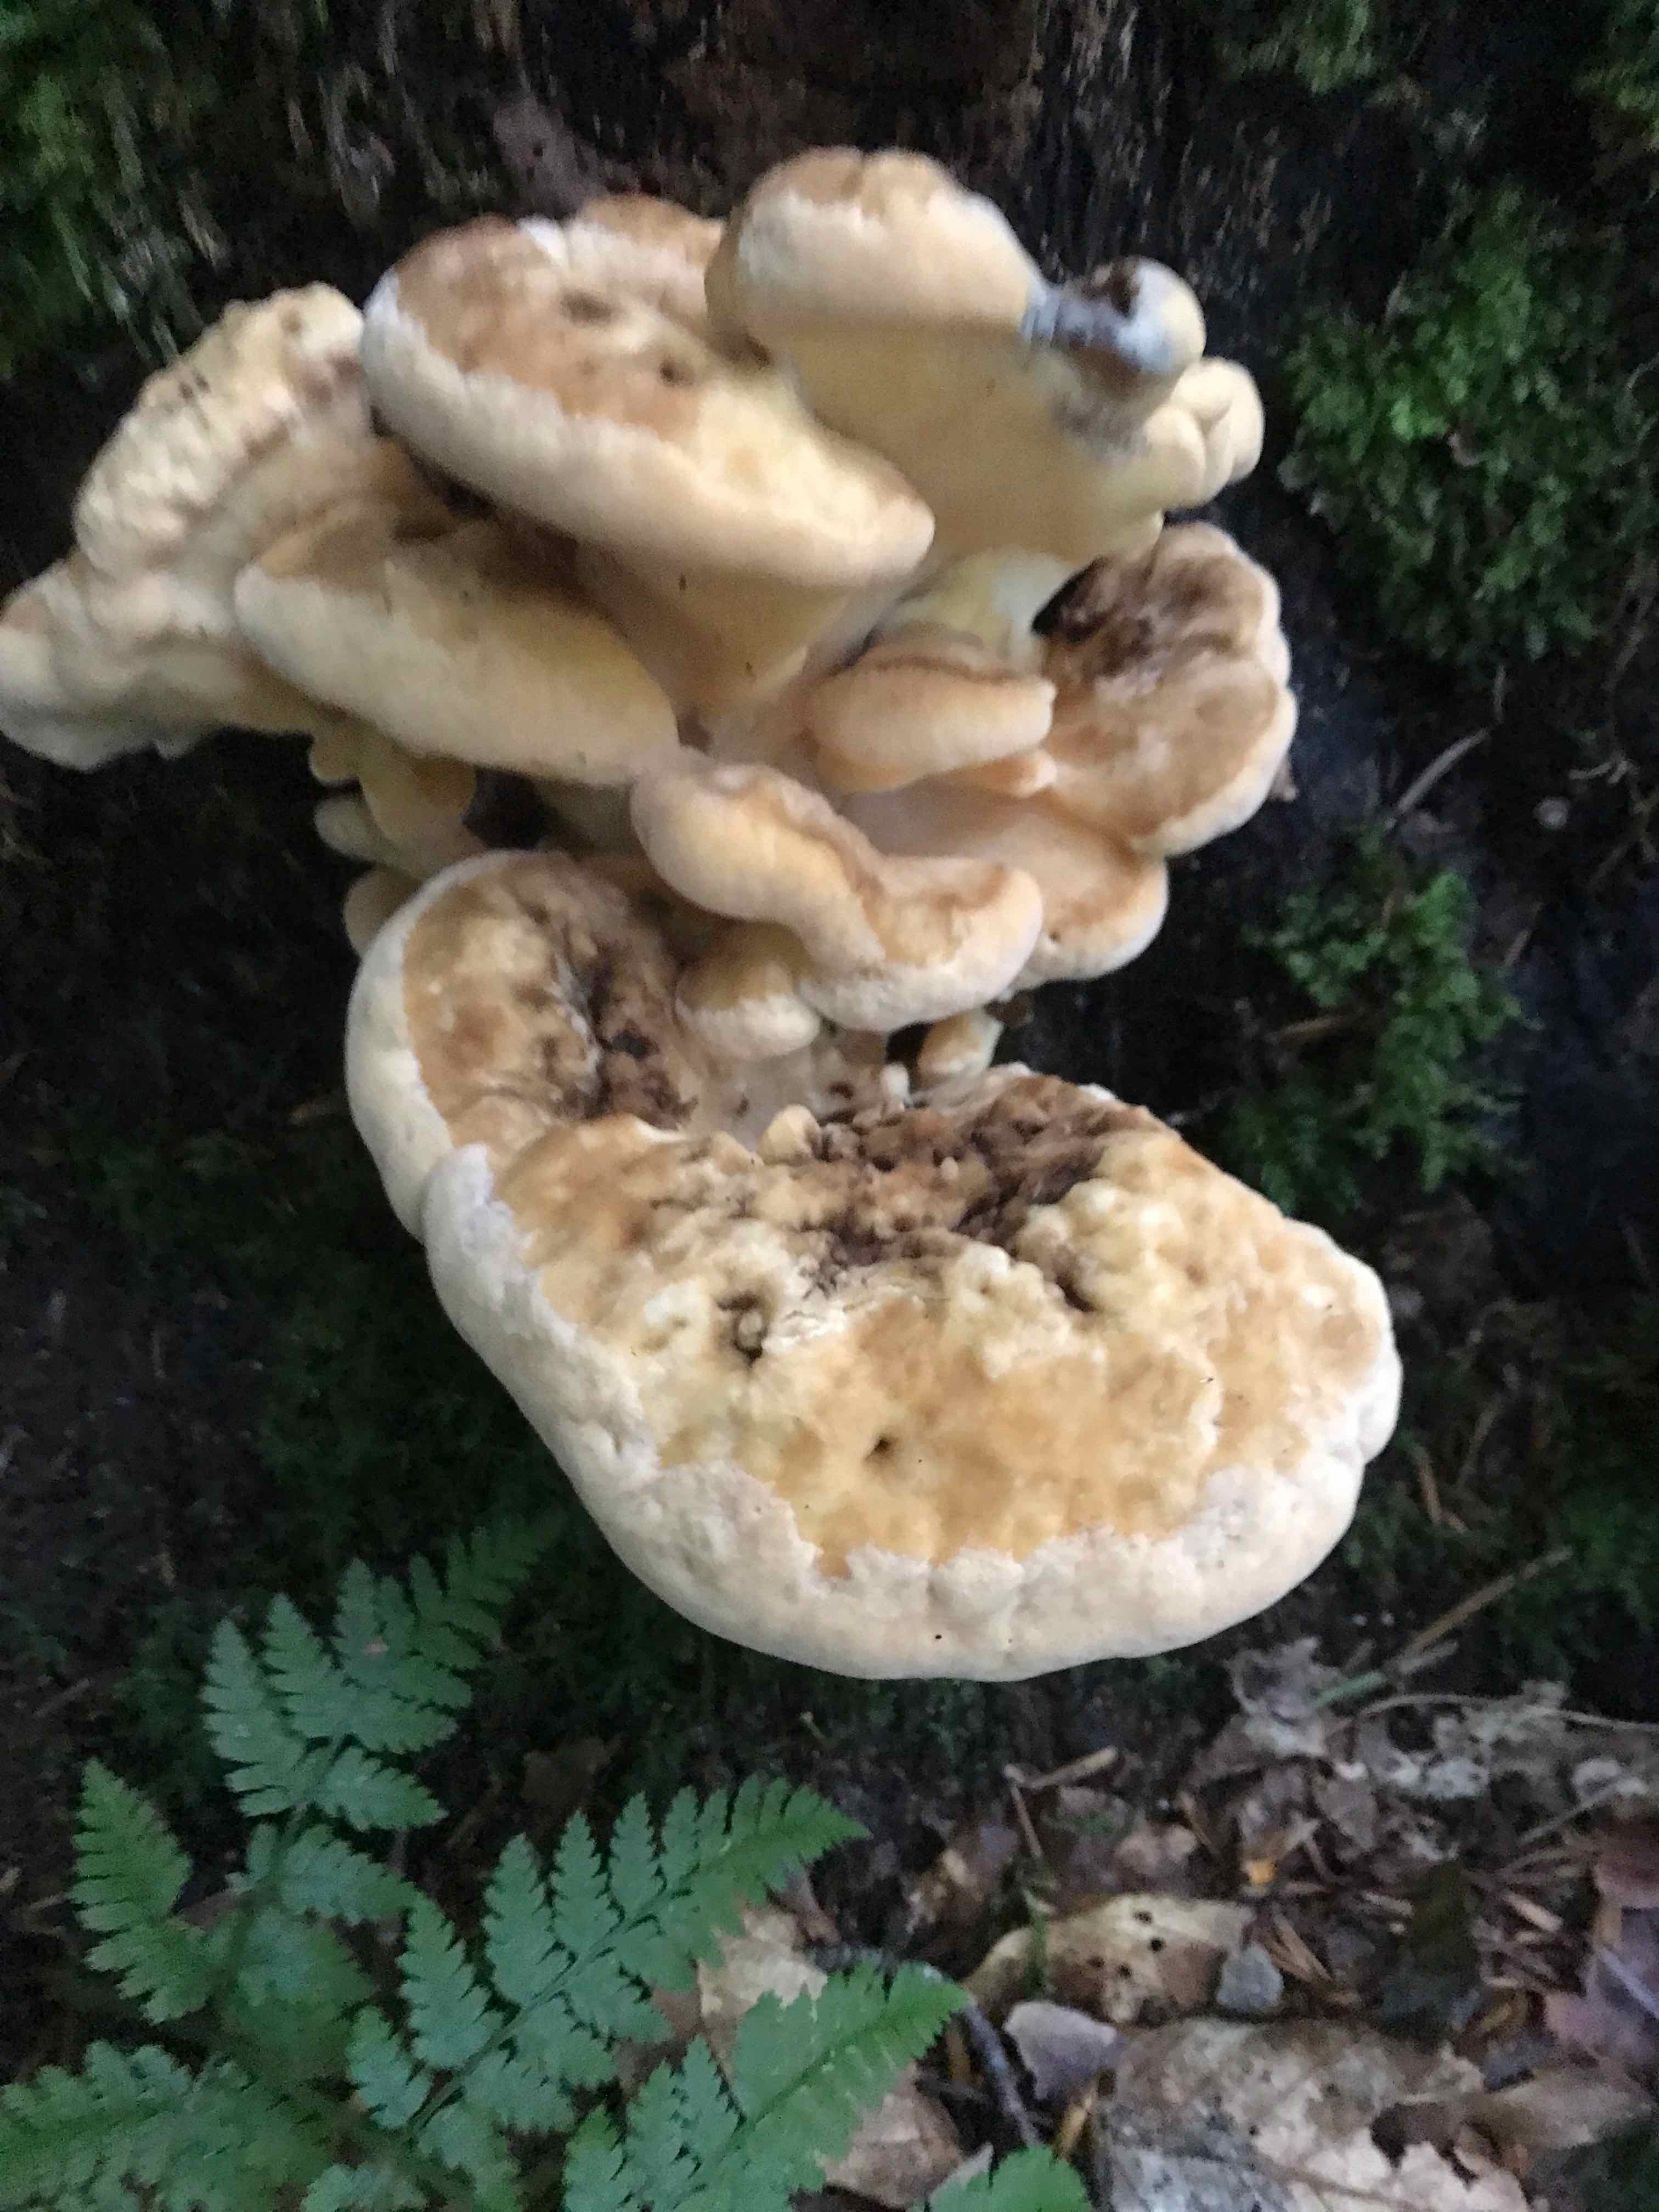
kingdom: Fungi
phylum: Basidiomycota
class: Agaricomycetes
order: Polyporales
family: Meripilaceae
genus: Meripilus
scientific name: Meripilus giganteus
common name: kæmpeporesvamp
